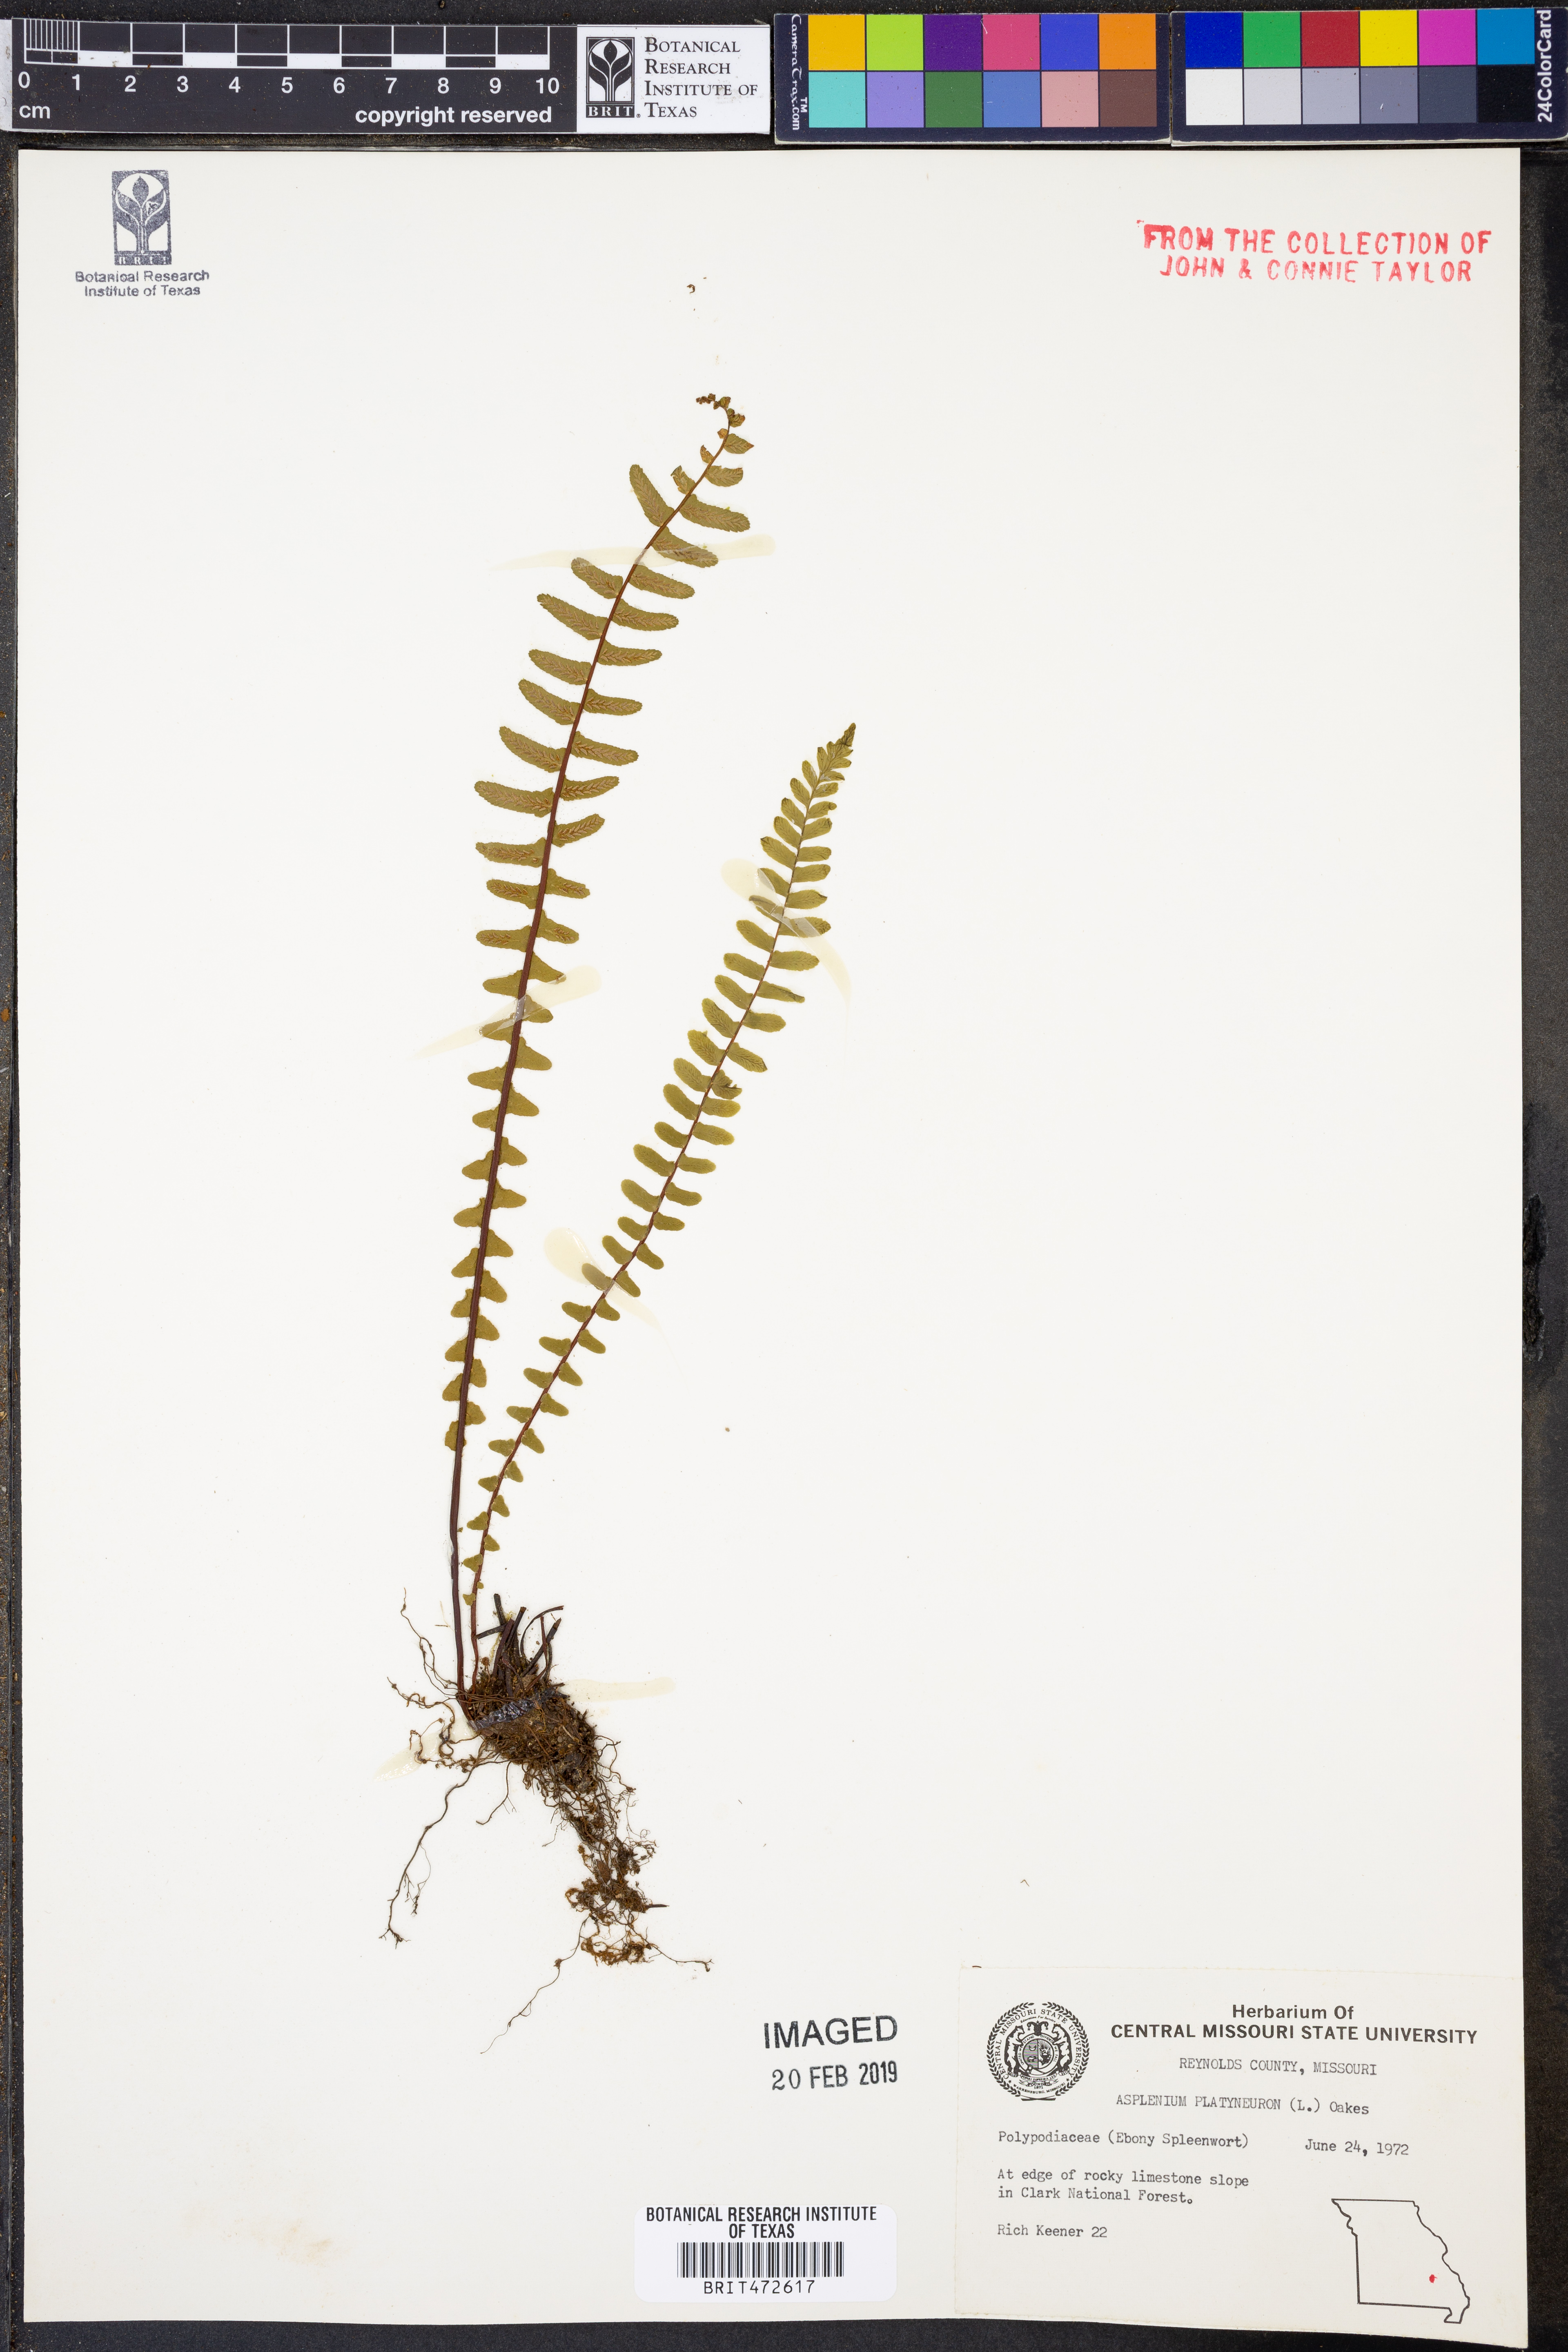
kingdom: Plantae
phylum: Tracheophyta
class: Polypodiopsida
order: Polypodiales
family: Aspleniaceae
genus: Asplenium
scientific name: Asplenium platyneuron
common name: Ebony spleenwort
